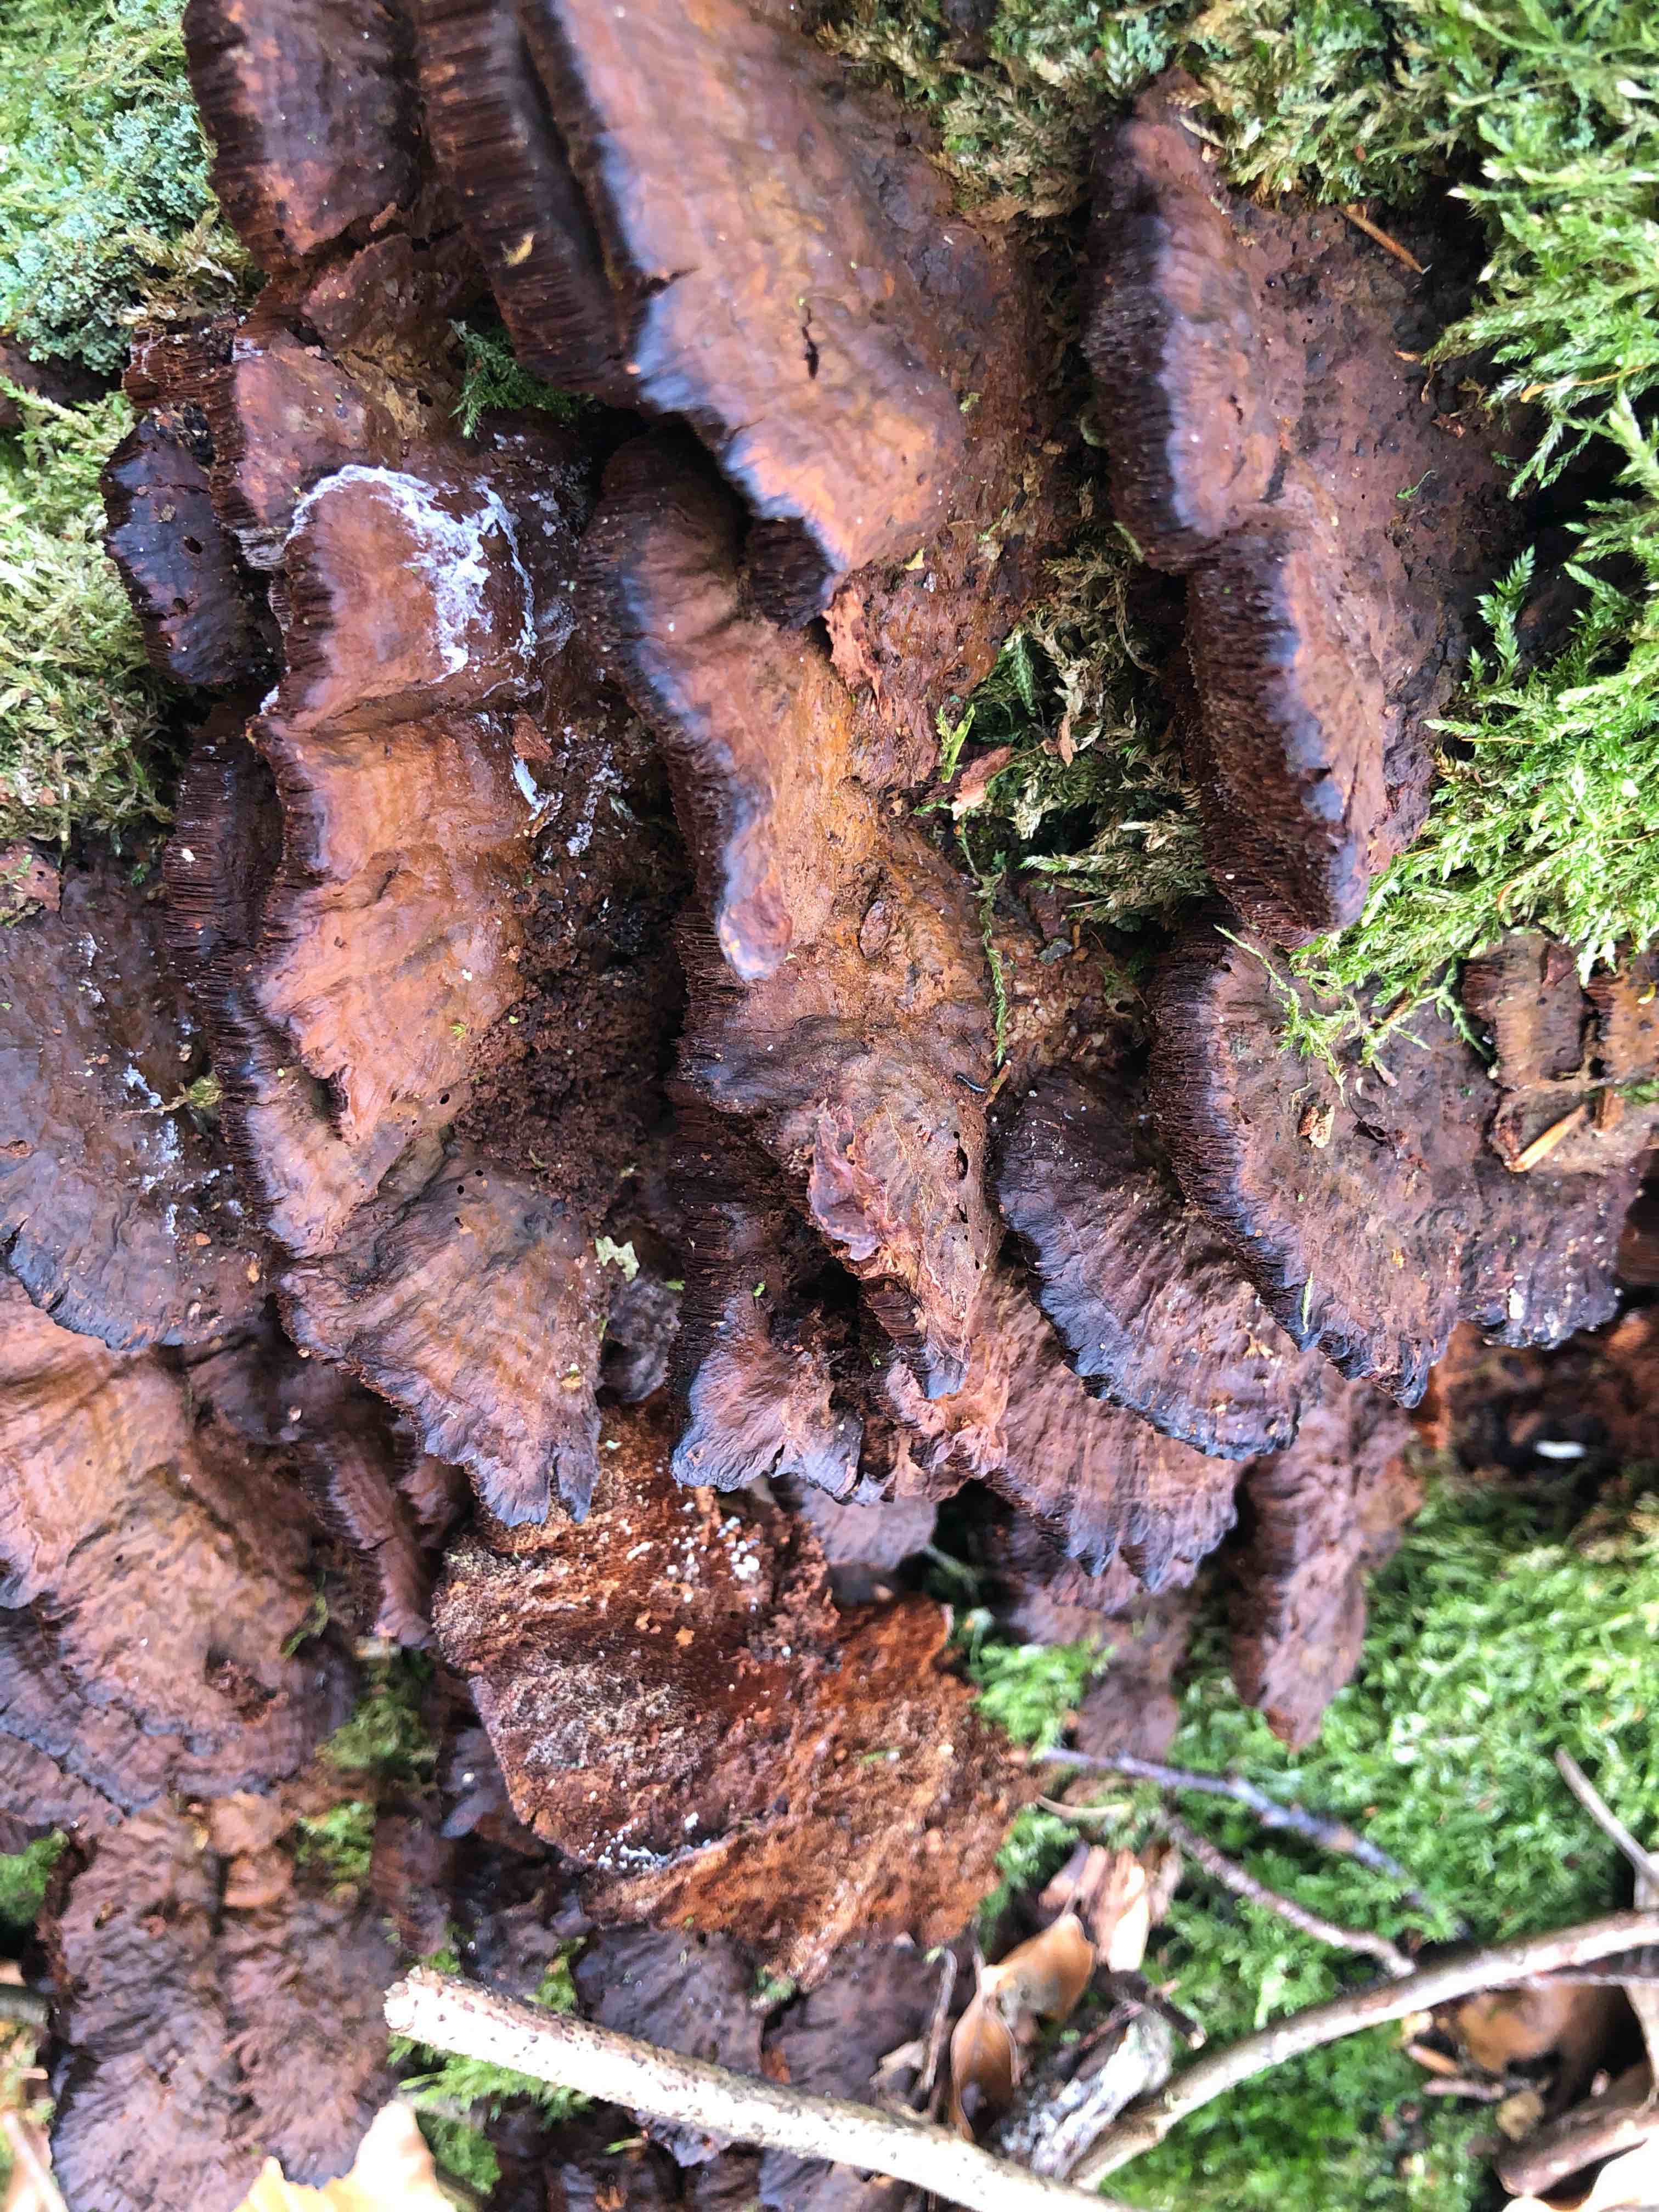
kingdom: Fungi
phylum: Basidiomycota
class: Agaricomycetes
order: Hymenochaetales
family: Hymenochaetaceae
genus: Xanthoporia
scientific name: Xanthoporia radiata
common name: elle-spejlporesvamp
